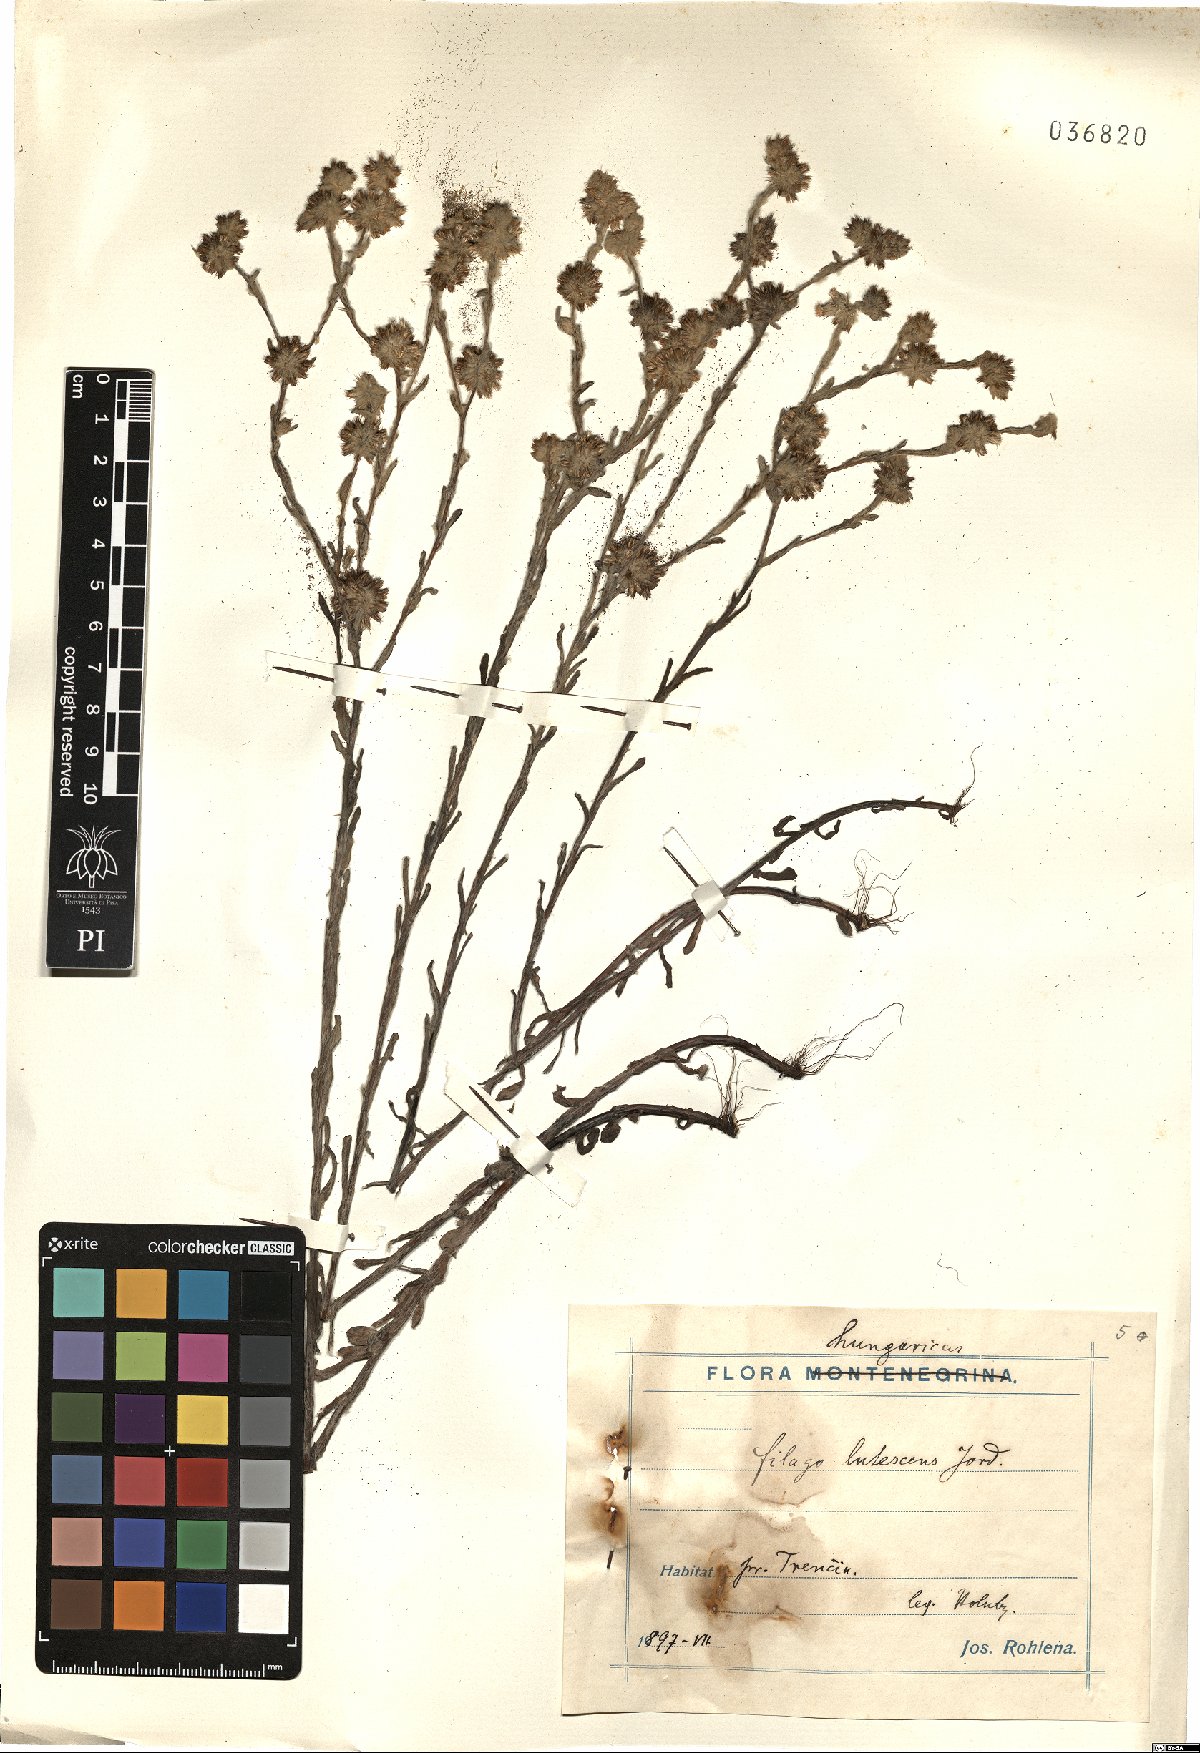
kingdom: Plantae
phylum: Tracheophyta
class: Magnoliopsida
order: Asterales
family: Asteraceae
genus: Filago
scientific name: Filago lutescens
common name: Red-tipped cudweed
